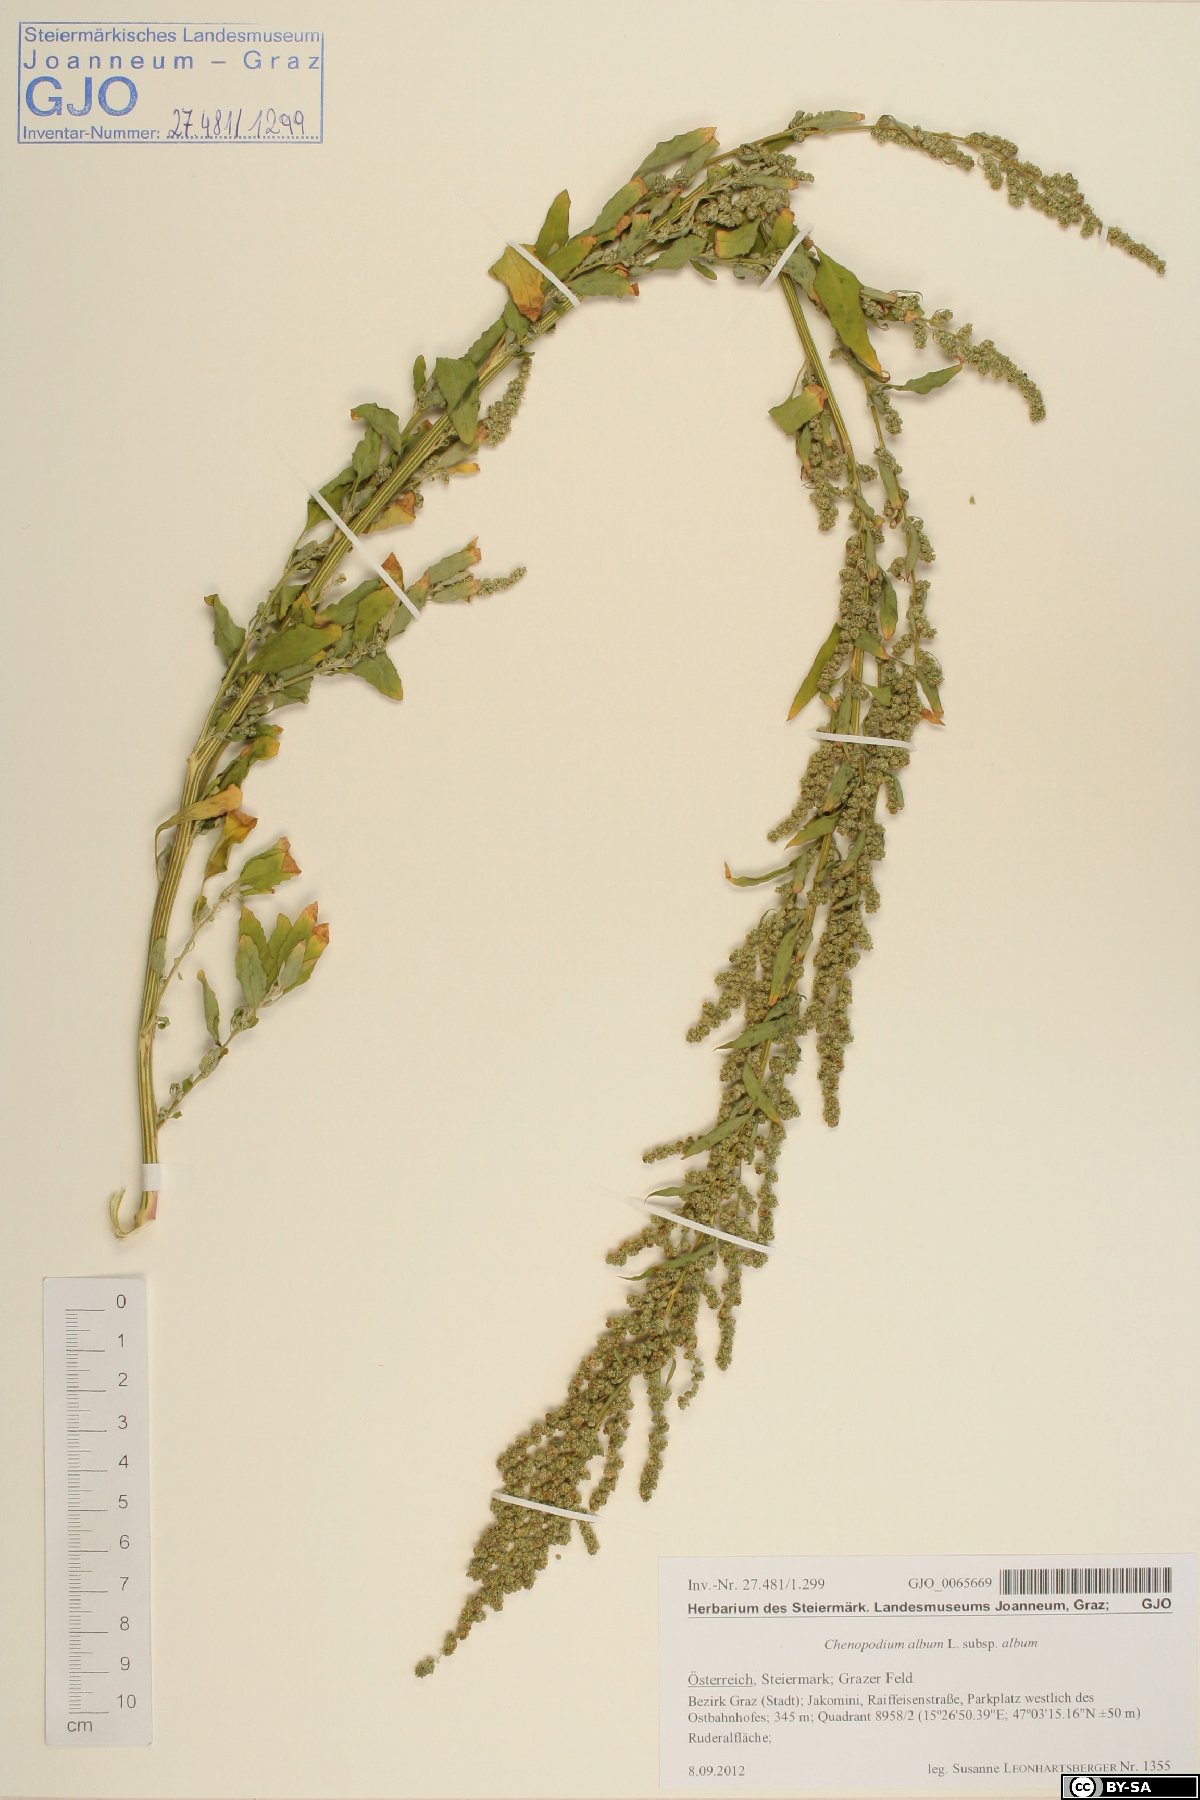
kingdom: Plantae
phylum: Tracheophyta
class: Magnoliopsida
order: Caryophyllales
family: Amaranthaceae
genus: Chenopodium
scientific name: Chenopodium album
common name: Fat-hen
